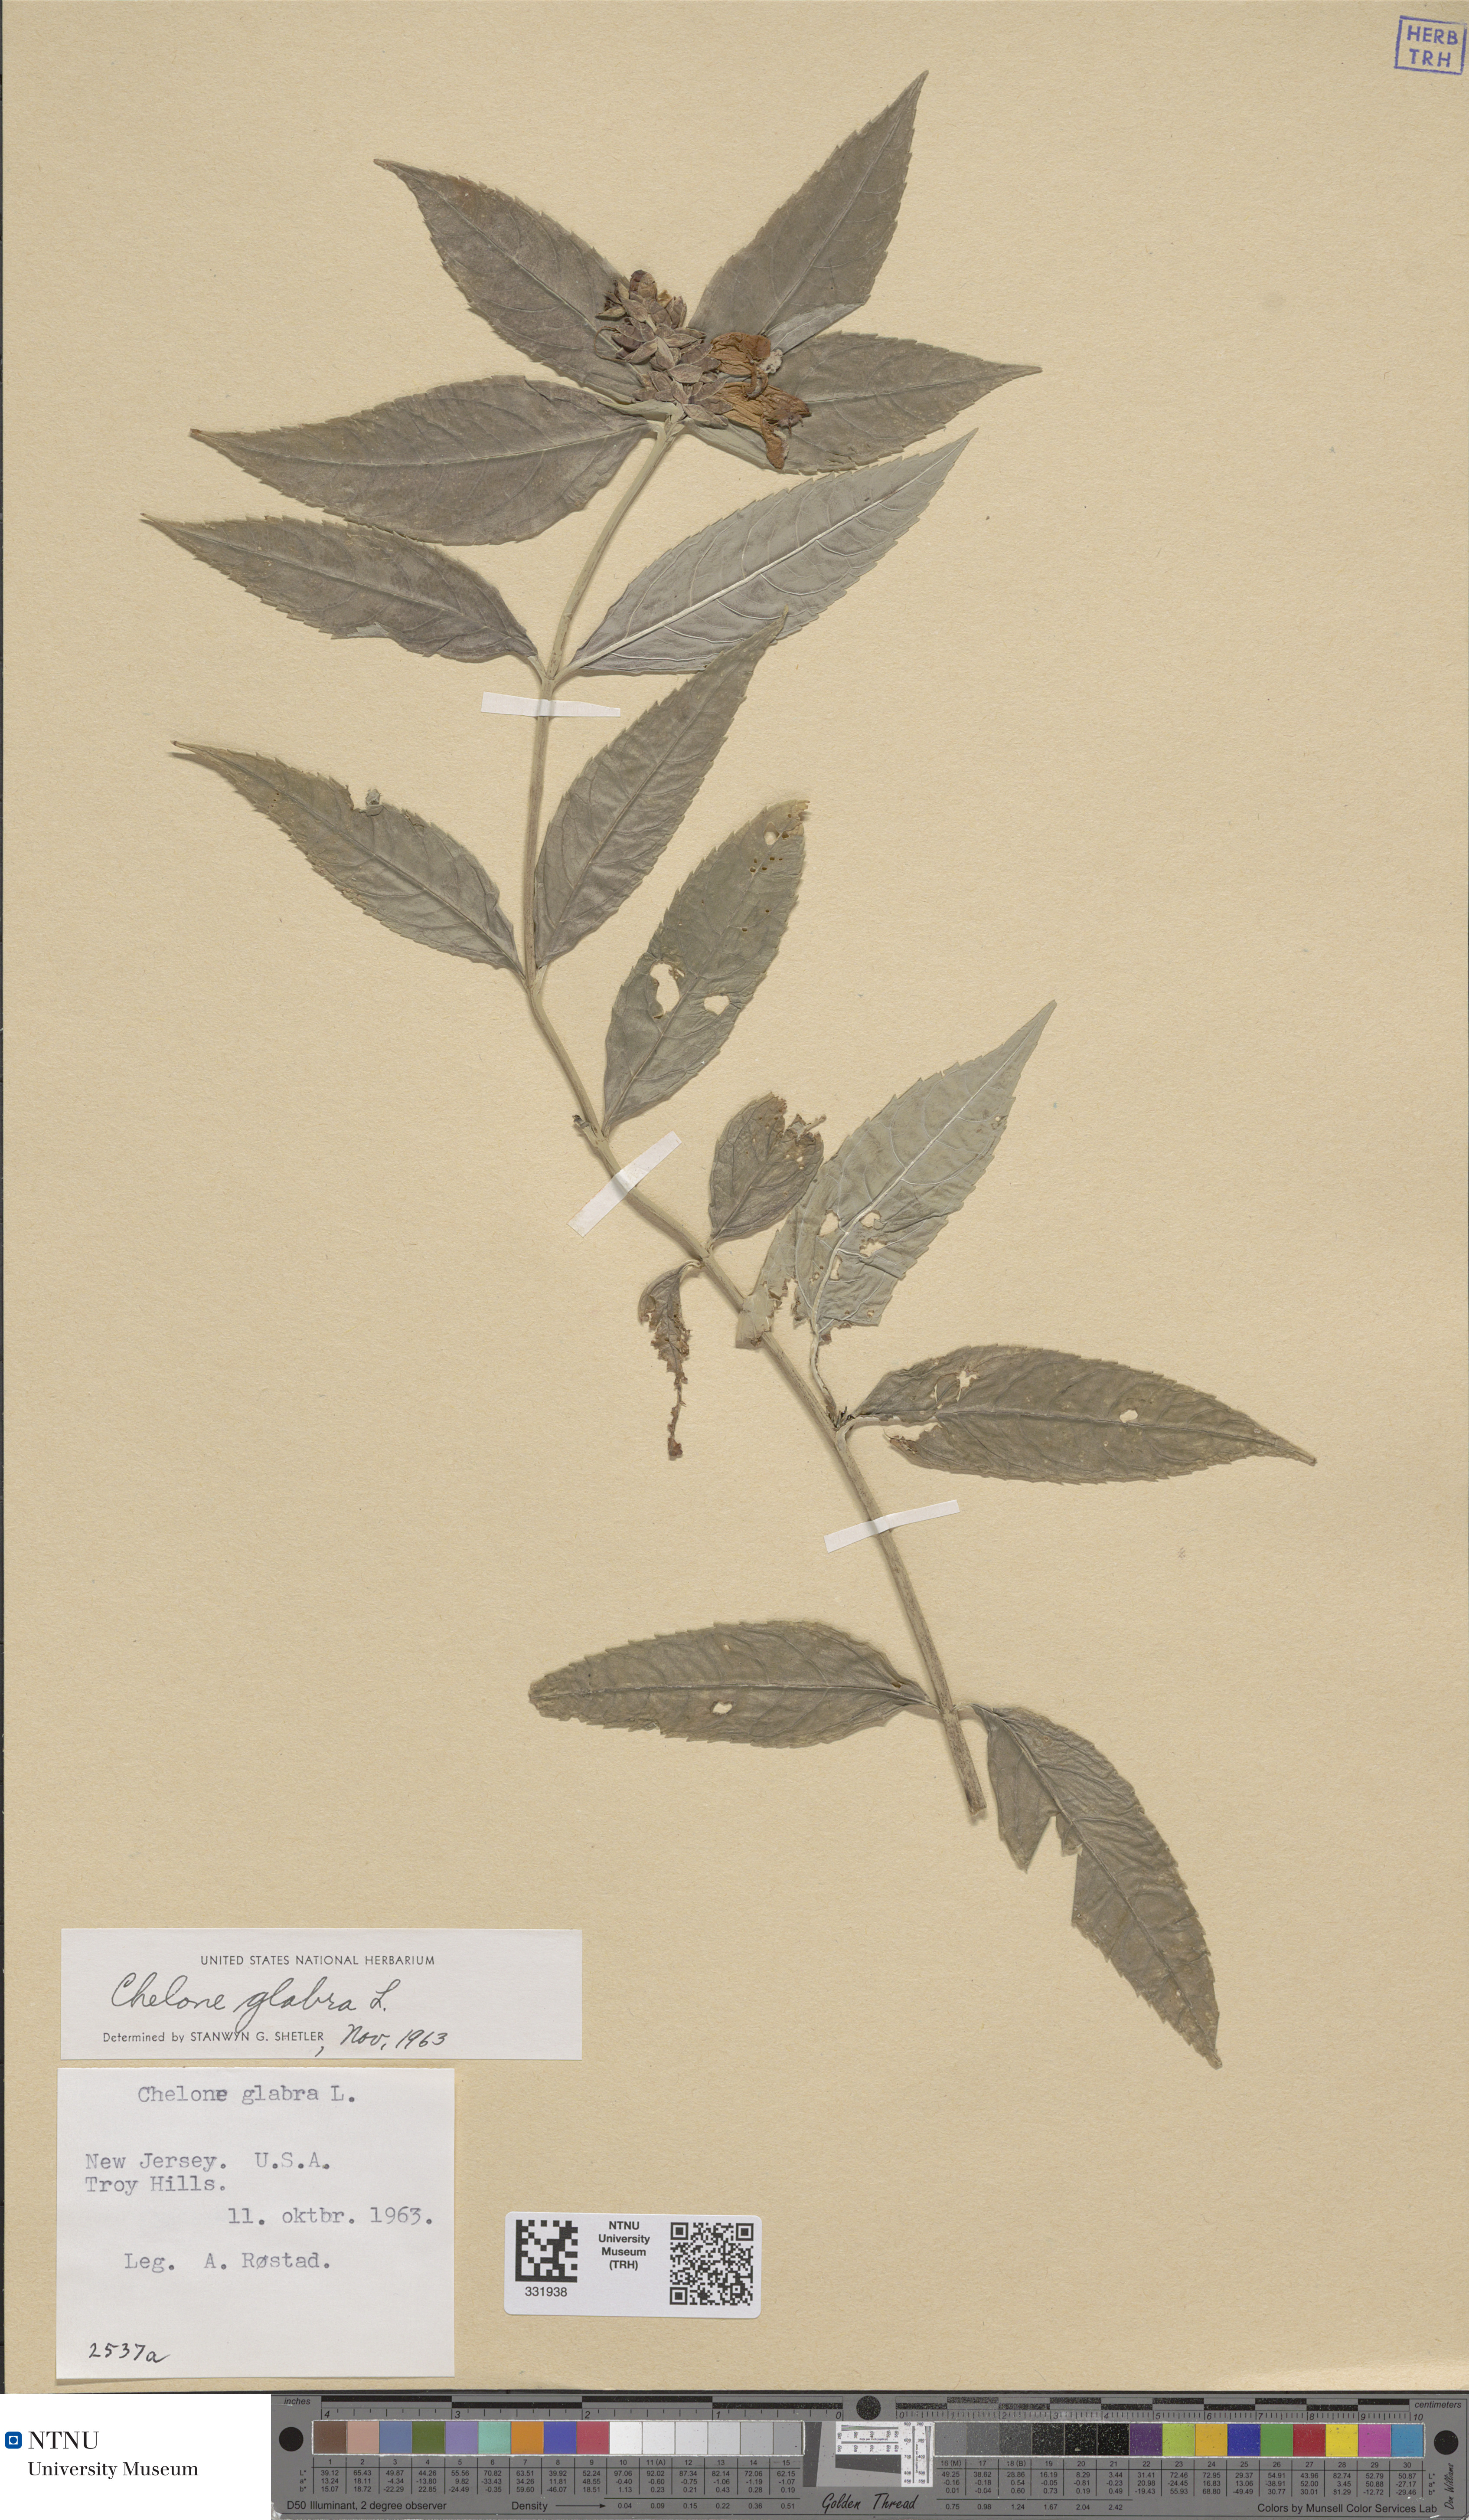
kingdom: Plantae
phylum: Tracheophyta
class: Magnoliopsida
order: Lamiales
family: Plantaginaceae
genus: Chelone
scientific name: Chelone glabra
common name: Snakehead
